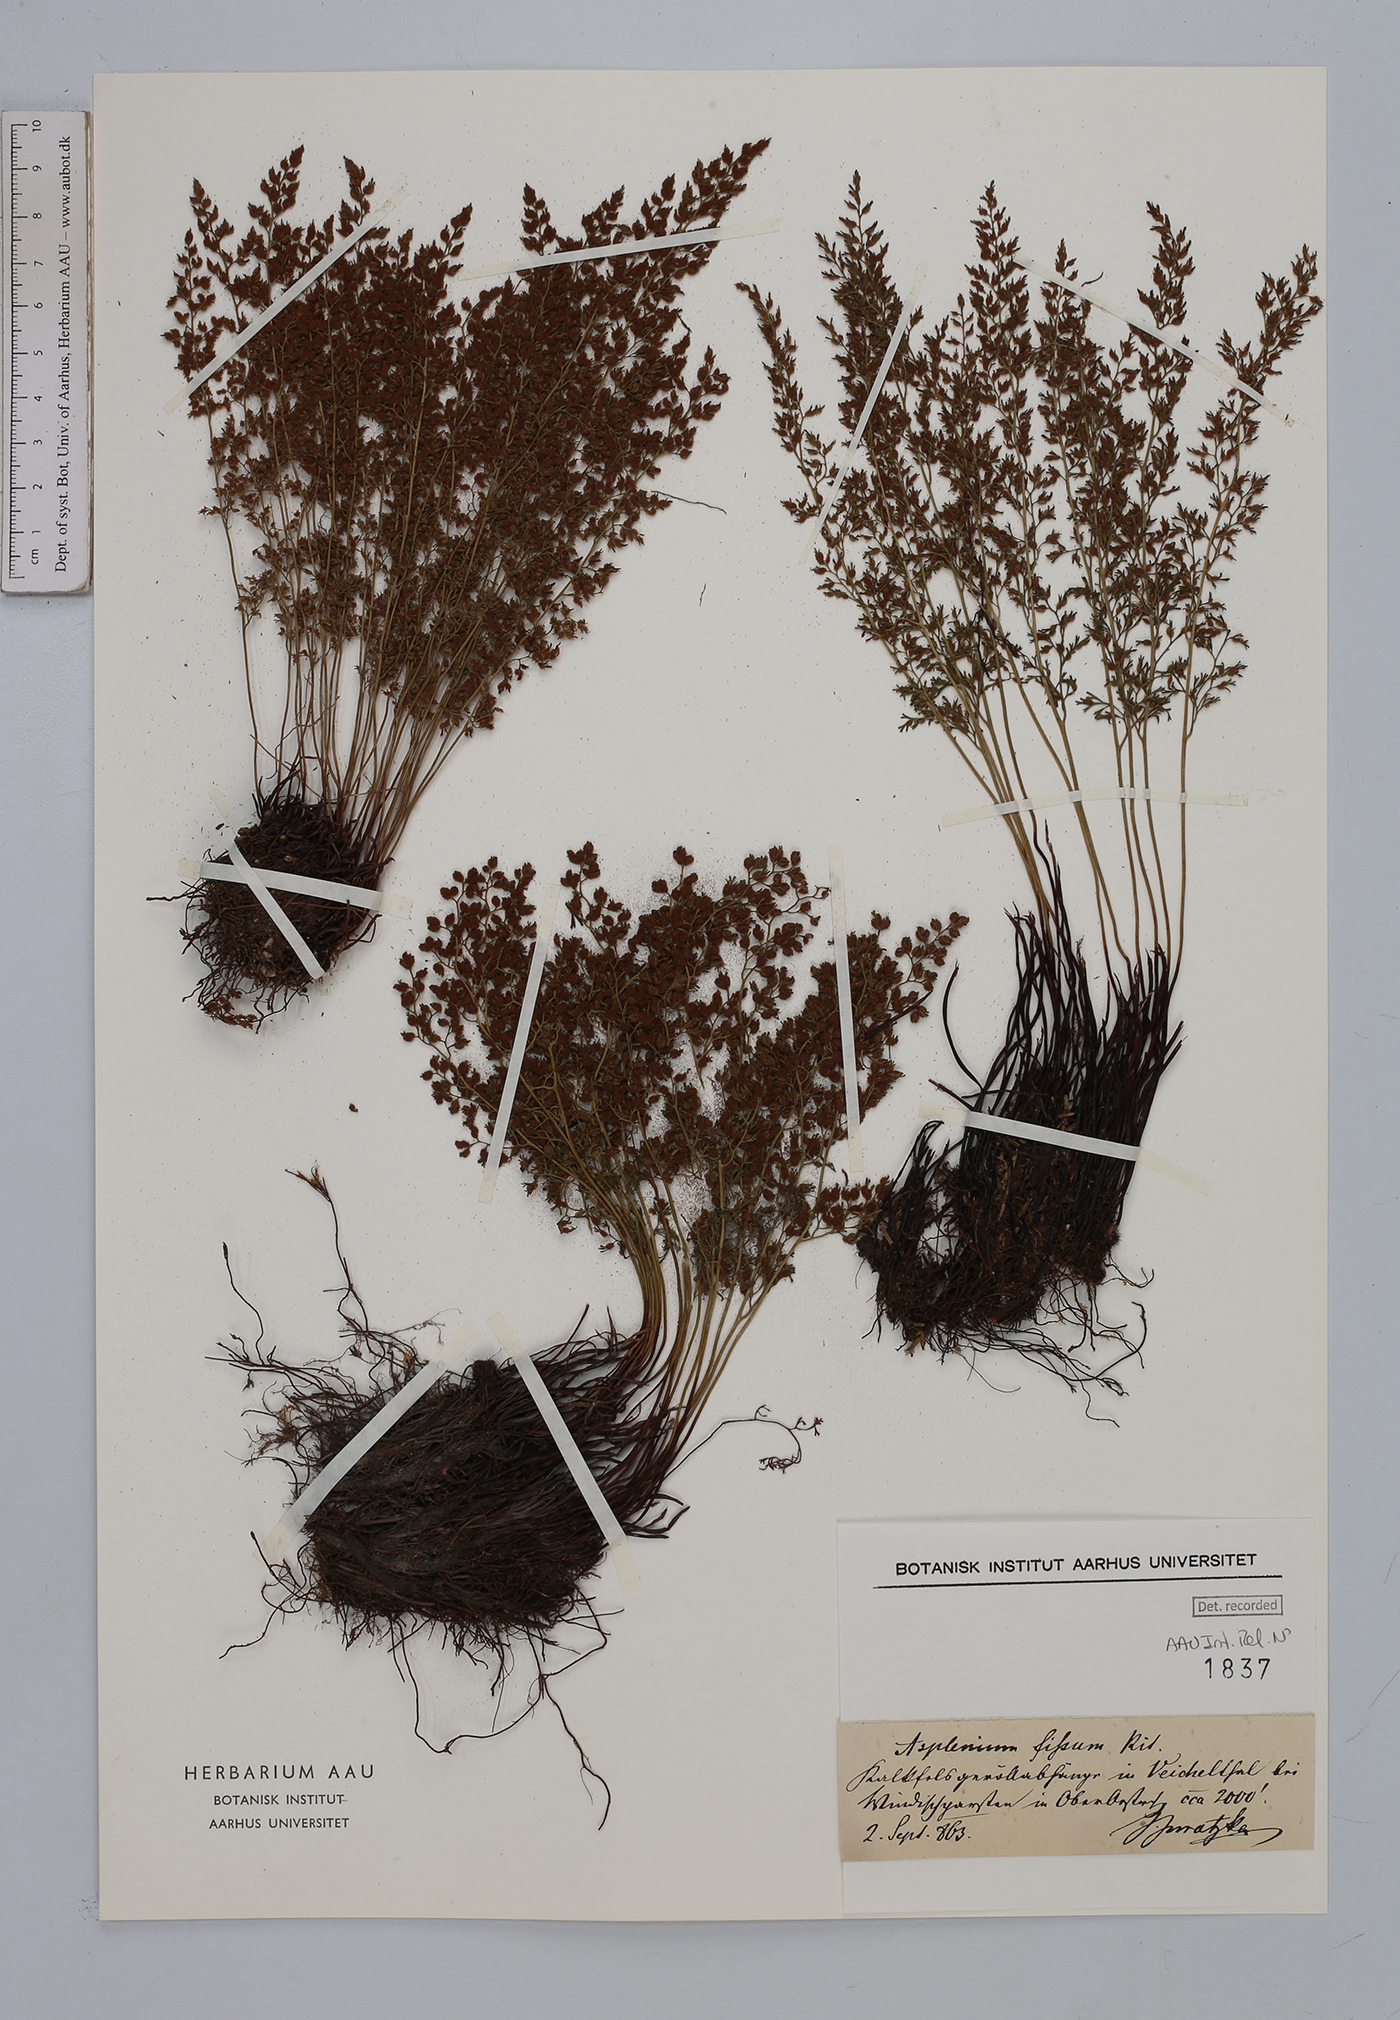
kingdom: Plantae
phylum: Tracheophyta
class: Polypodiopsida
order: Polypodiales
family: Aspleniaceae
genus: Asplenium
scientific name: Asplenium fissum
